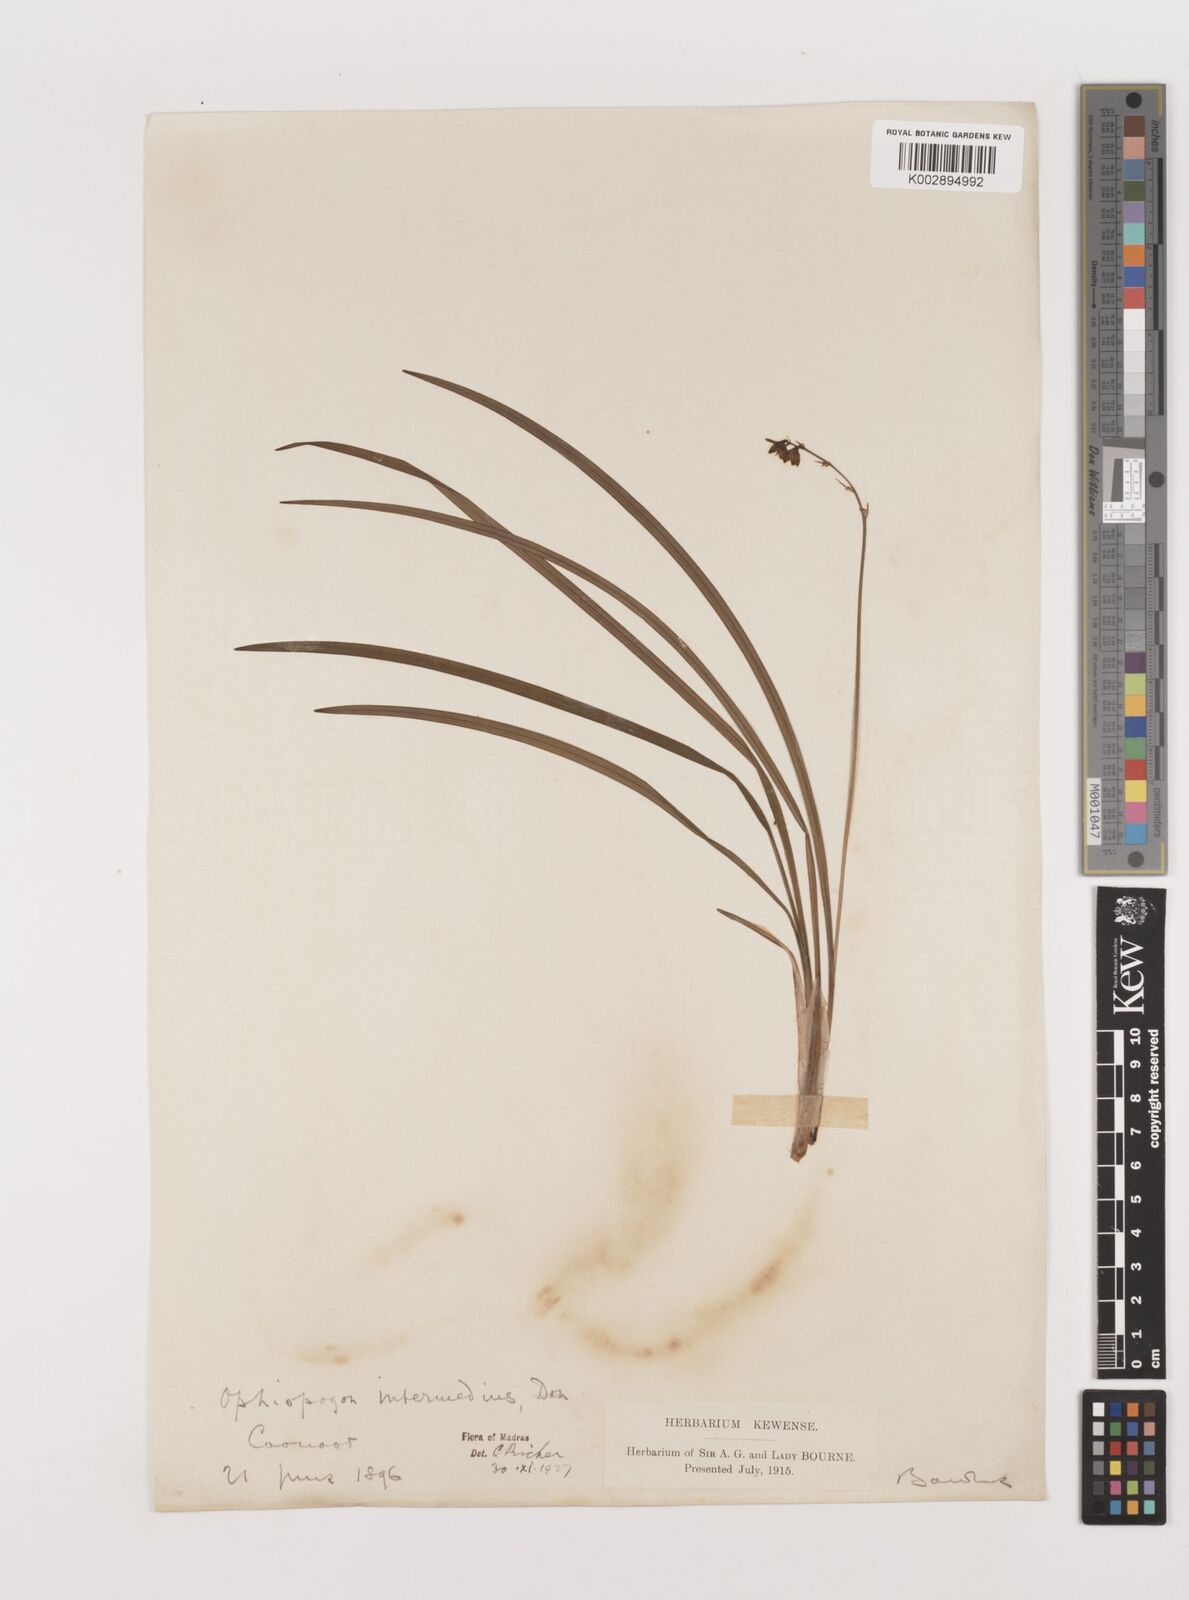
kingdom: Plantae
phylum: Tracheophyta
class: Liliopsida
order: Asparagales
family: Asparagaceae
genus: Ophiopogon
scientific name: Ophiopogon intermedius
